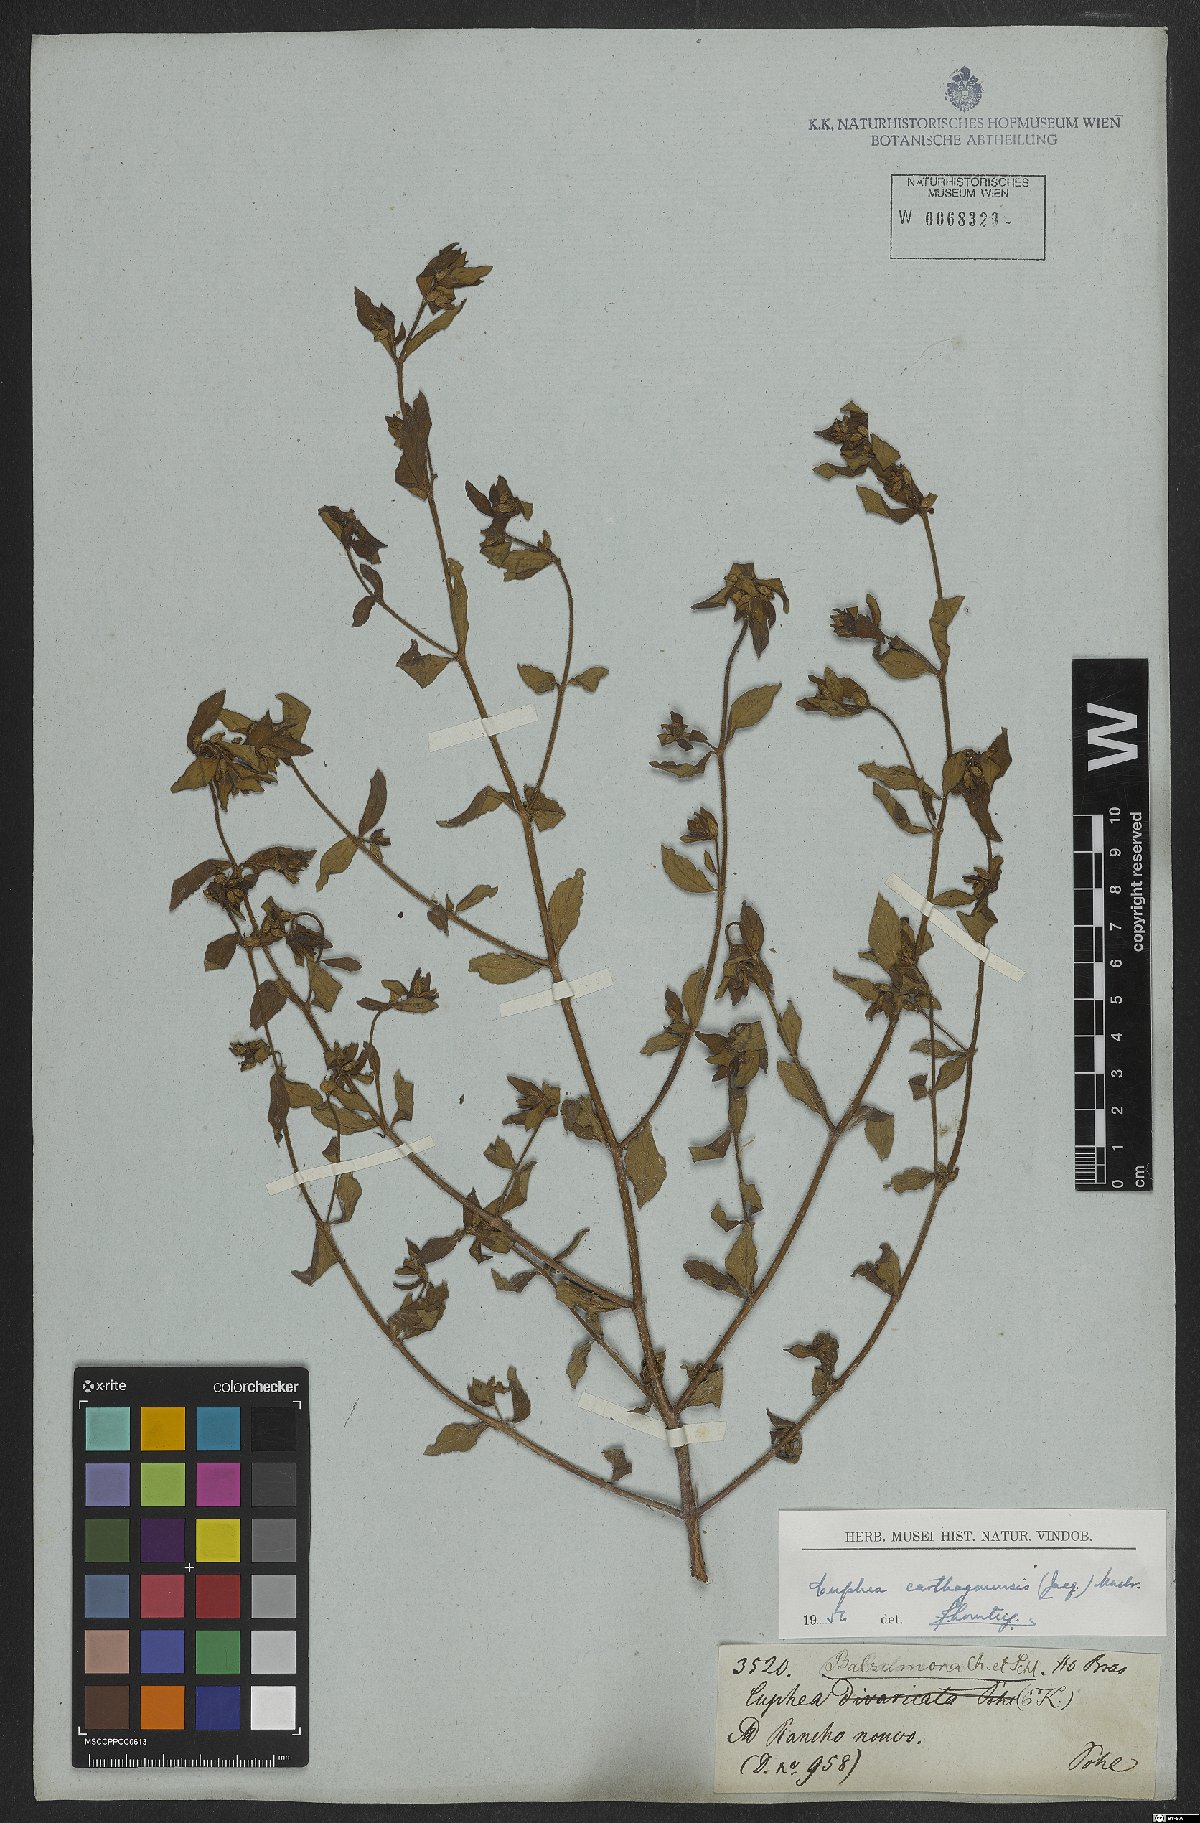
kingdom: Plantae
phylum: Tracheophyta
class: Magnoliopsida
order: Myrtales
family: Lythraceae
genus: Cuphea
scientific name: Cuphea carthagenensis
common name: Colombian waxweed
